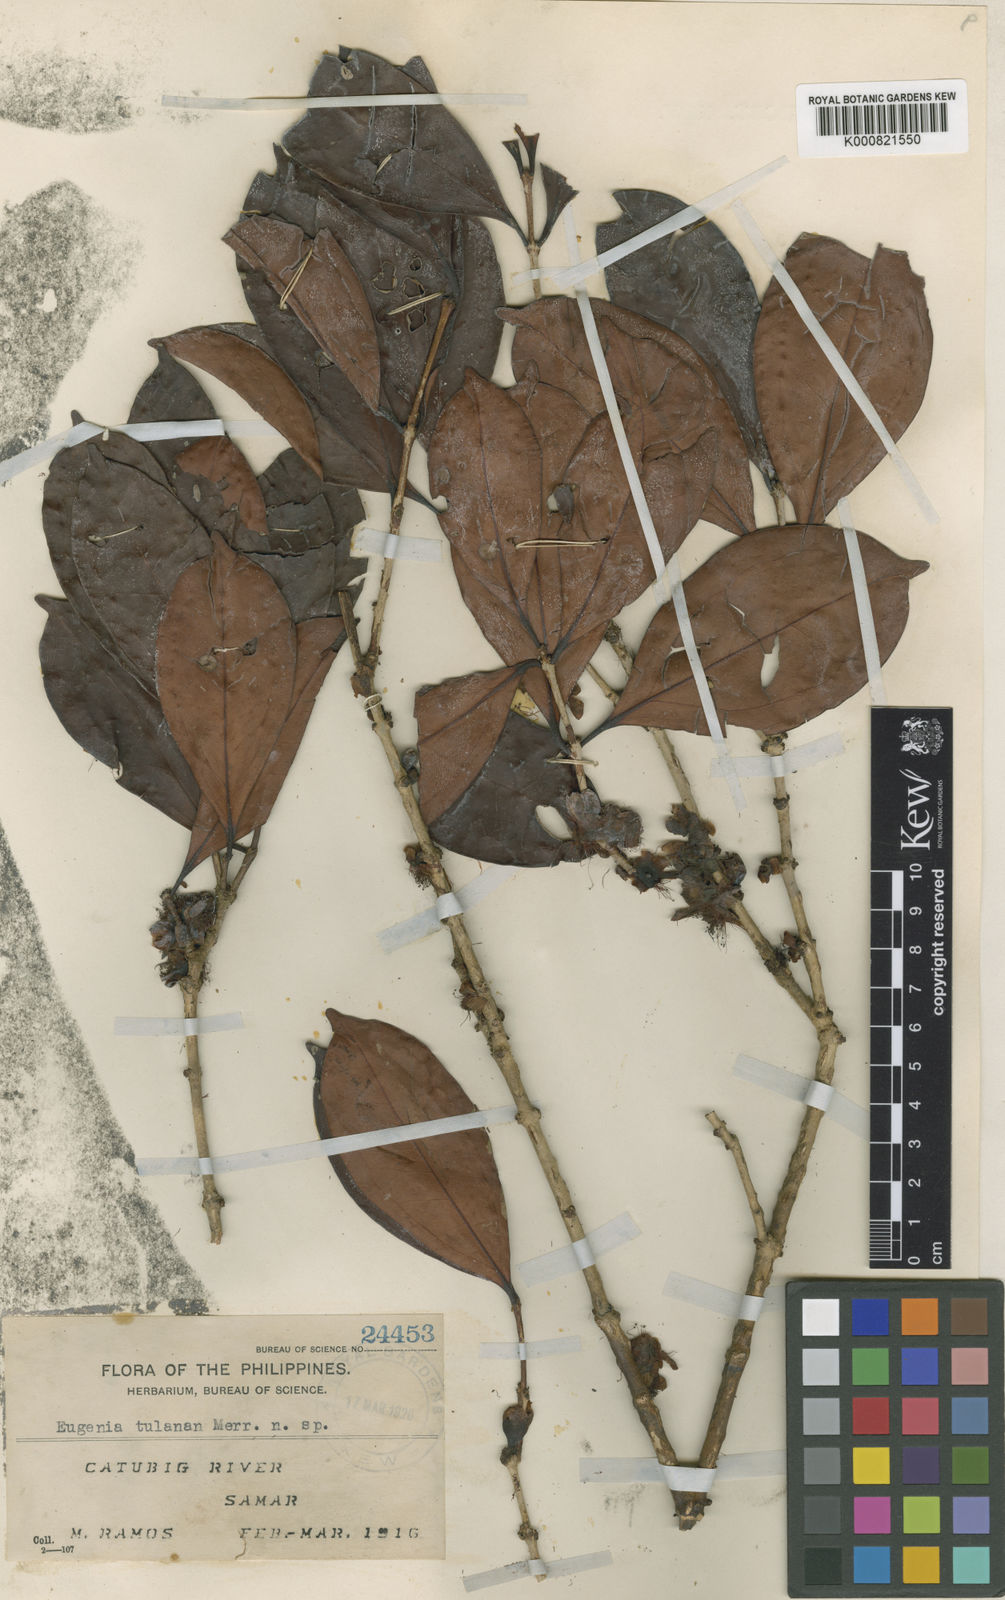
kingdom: Plantae
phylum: Tracheophyta
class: Magnoliopsida
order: Myrtales
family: Myrtaceae
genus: Eugenia
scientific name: Eugenia tulanan
